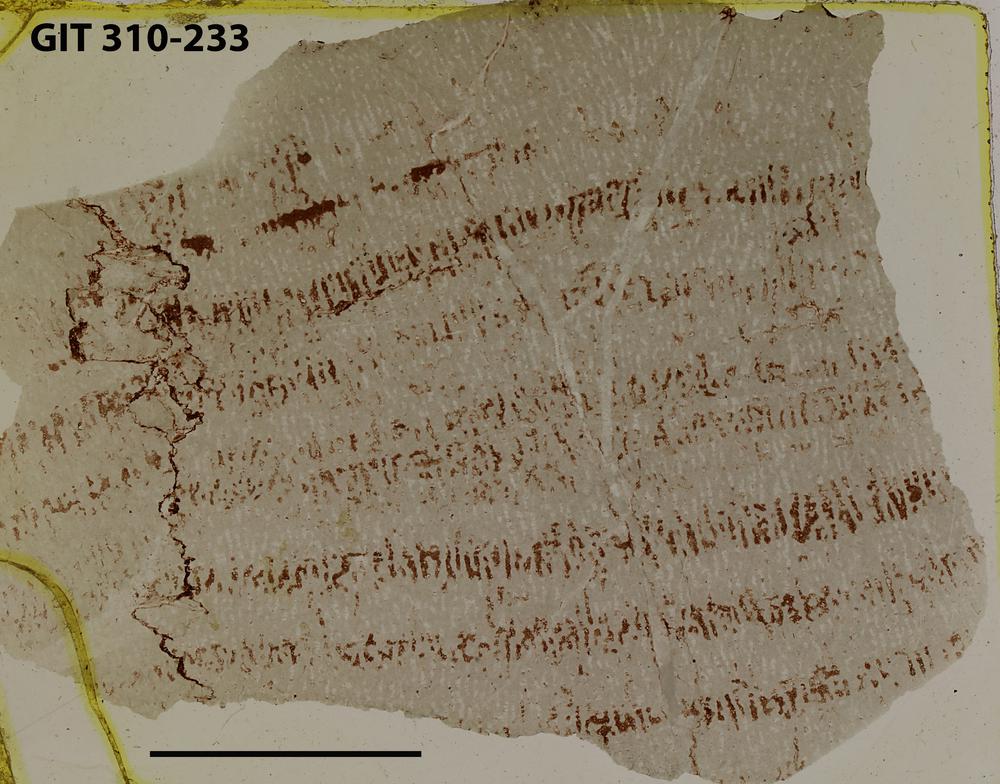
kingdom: Animalia
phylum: Porifera
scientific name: Porifera
